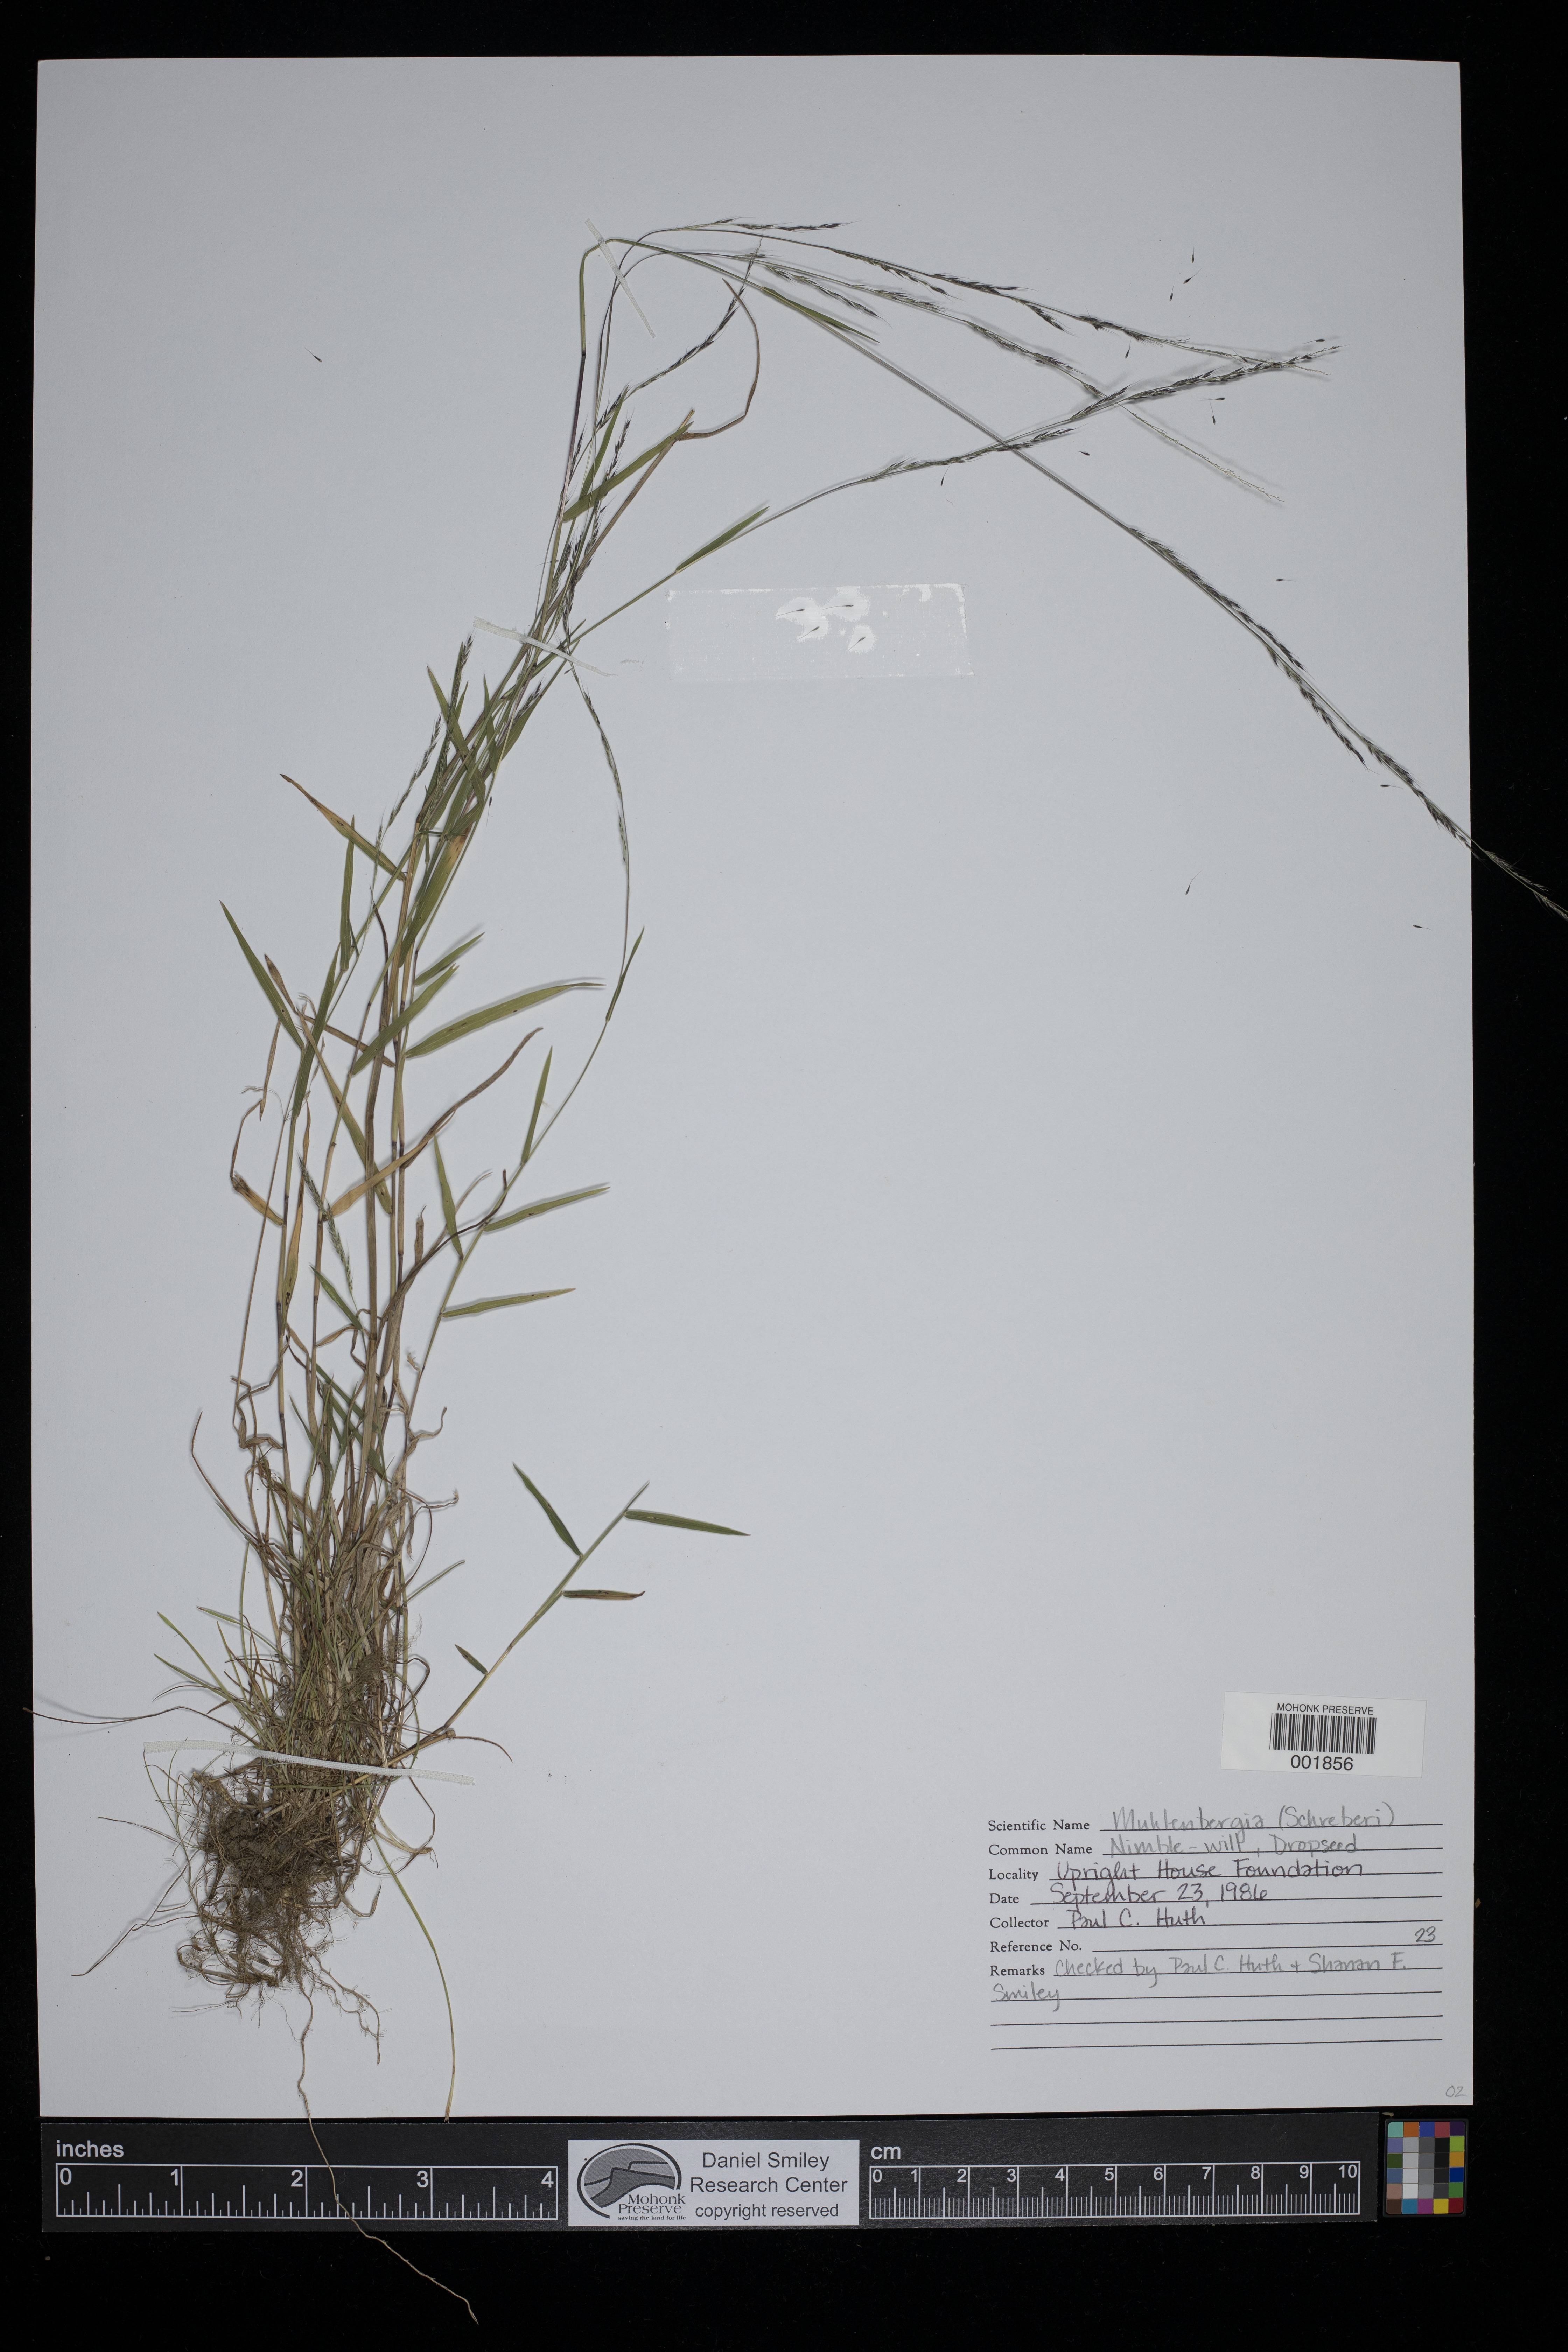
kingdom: Plantae
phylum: Tracheophyta
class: Liliopsida
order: Poales
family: Poaceae
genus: Muhlenbergia
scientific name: Muhlenbergia schreberi
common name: Nimblewill
